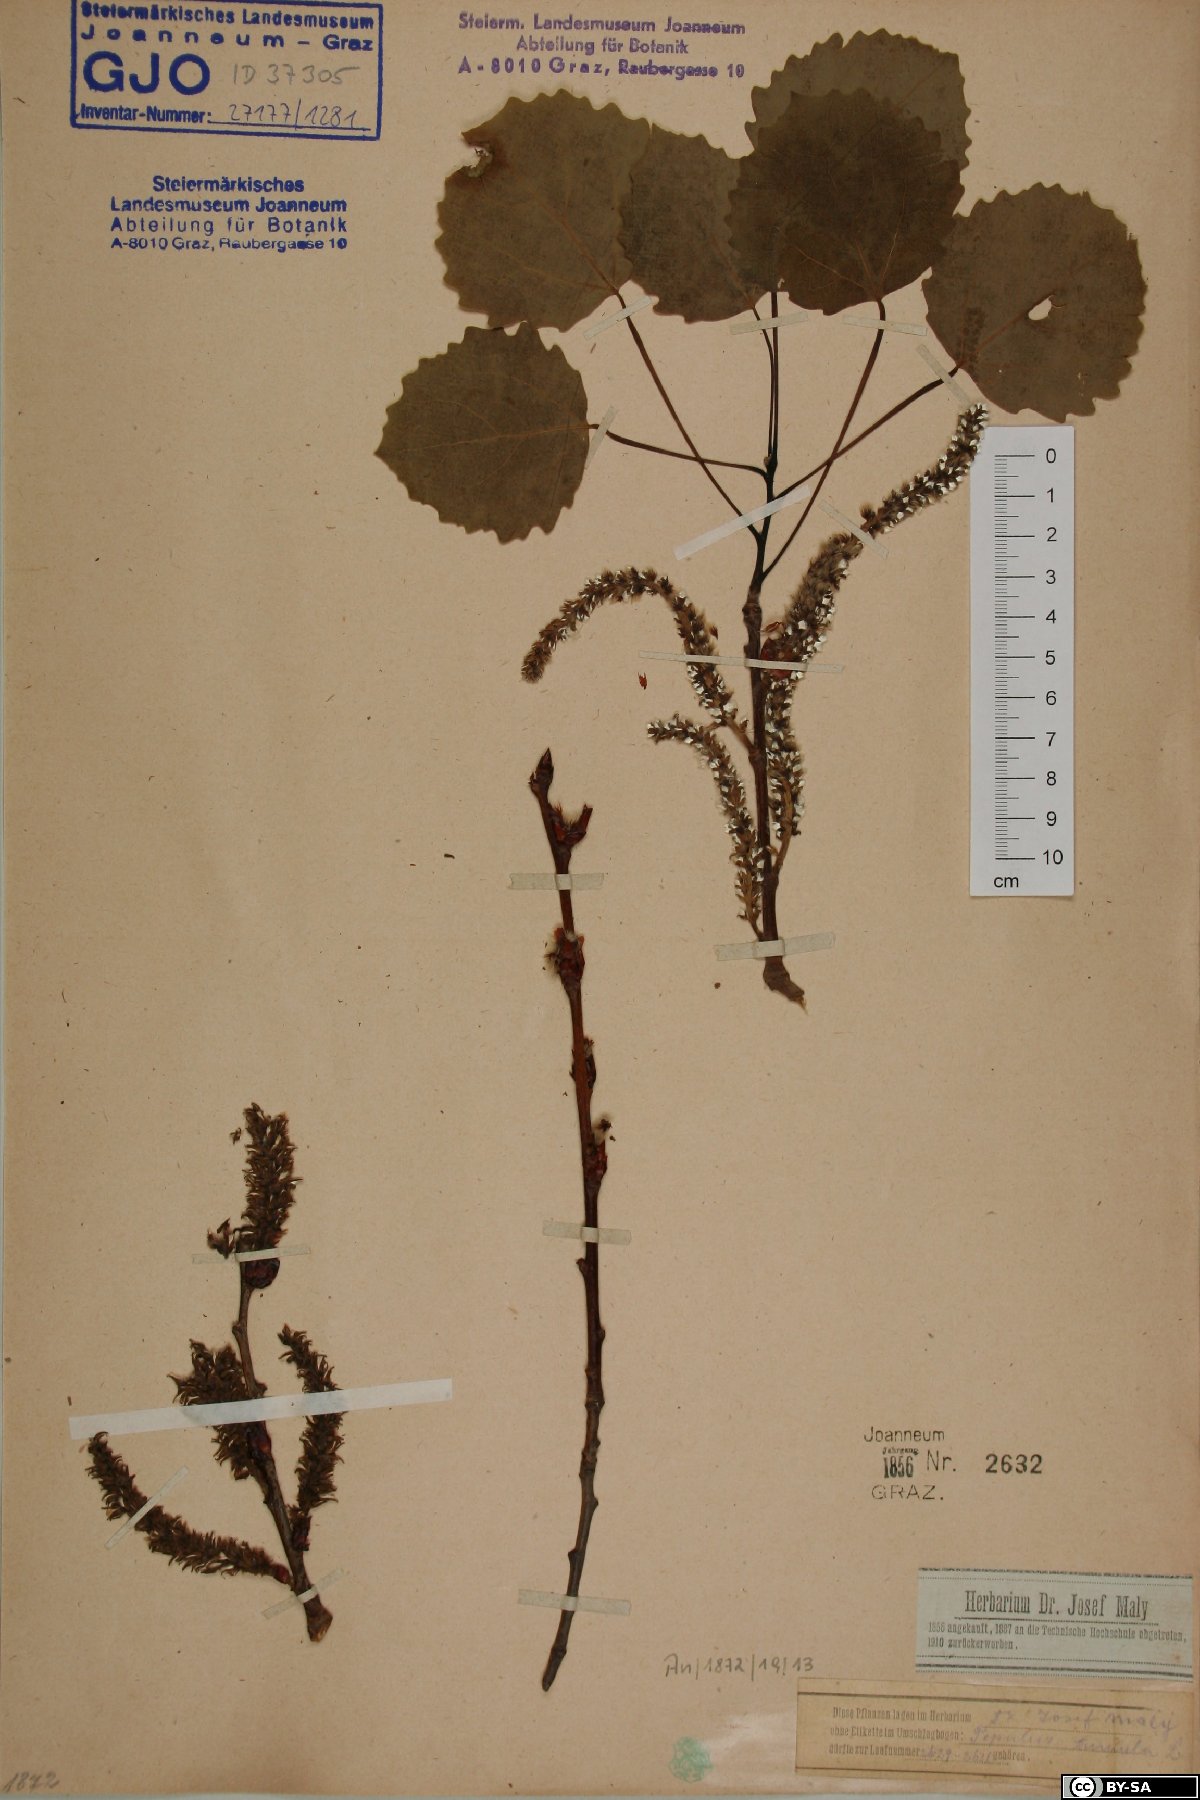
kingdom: Plantae
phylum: Tracheophyta
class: Magnoliopsida
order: Malpighiales
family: Salicaceae
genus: Populus
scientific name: Populus tremula
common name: European aspen
